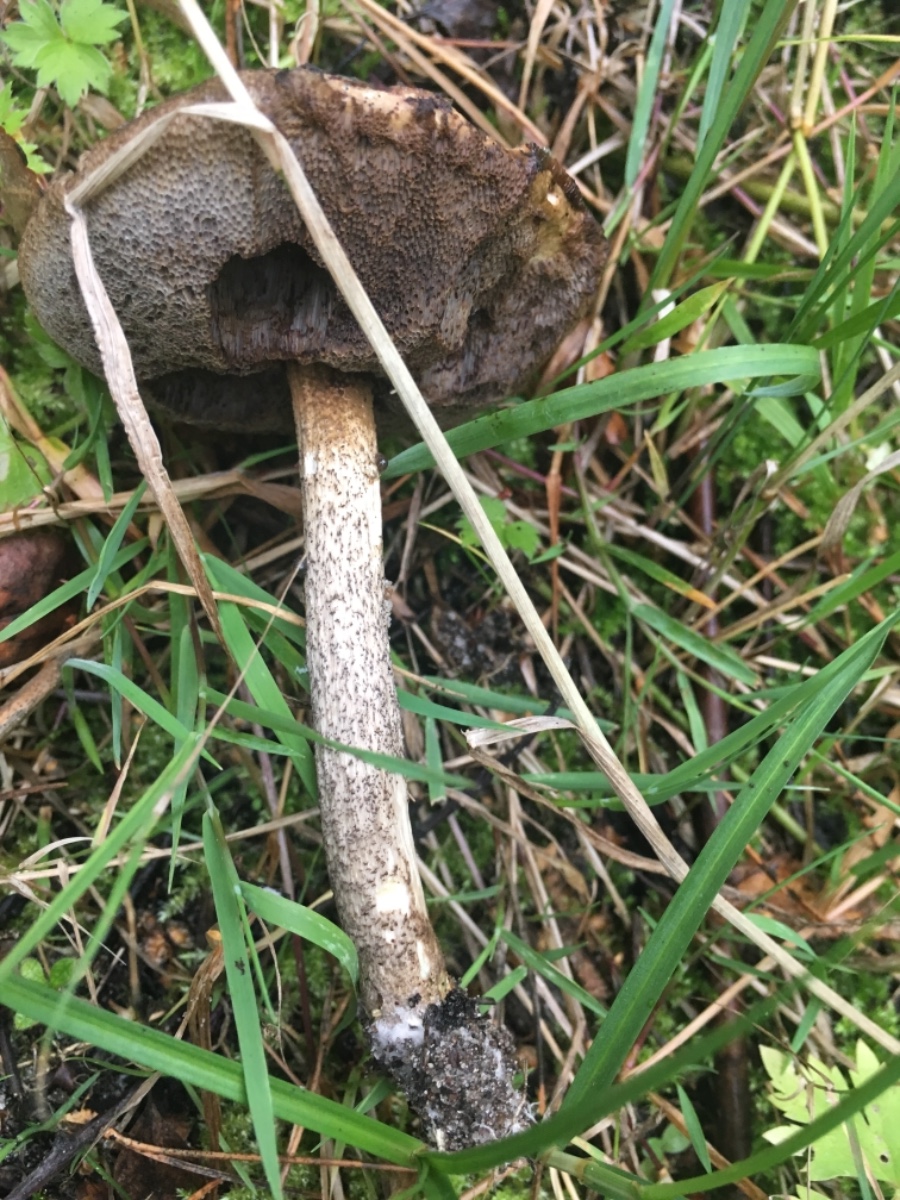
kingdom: Fungi
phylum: Basidiomycota
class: Agaricomycetes
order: Boletales
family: Boletaceae
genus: Leccinum
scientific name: Leccinum
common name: skælrørhat
